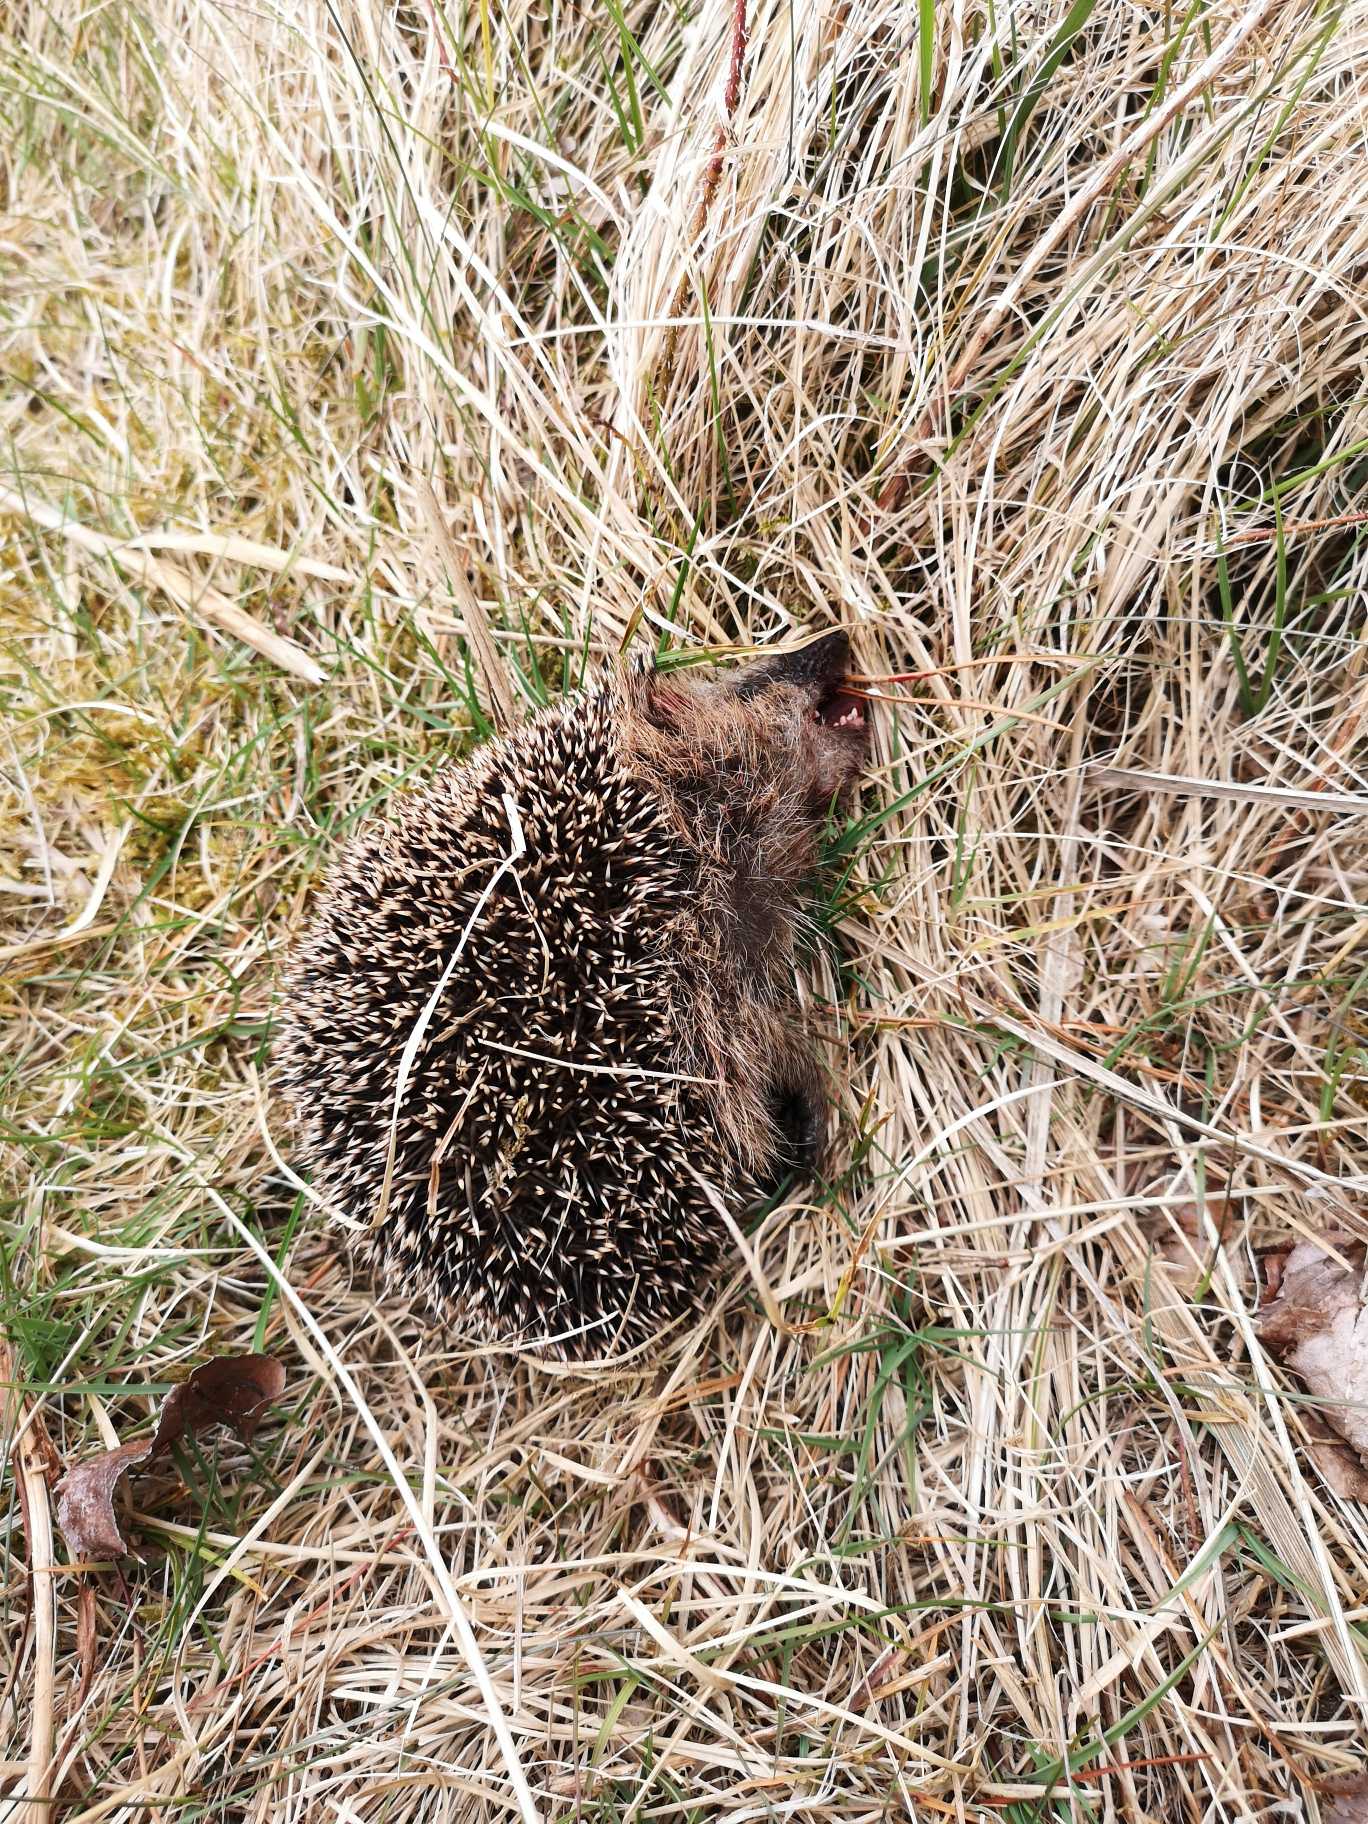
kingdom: Animalia
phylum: Chordata
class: Mammalia
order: Erinaceomorpha
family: Erinaceidae
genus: Erinaceus
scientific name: Erinaceus europaeus
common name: Pindsvin
